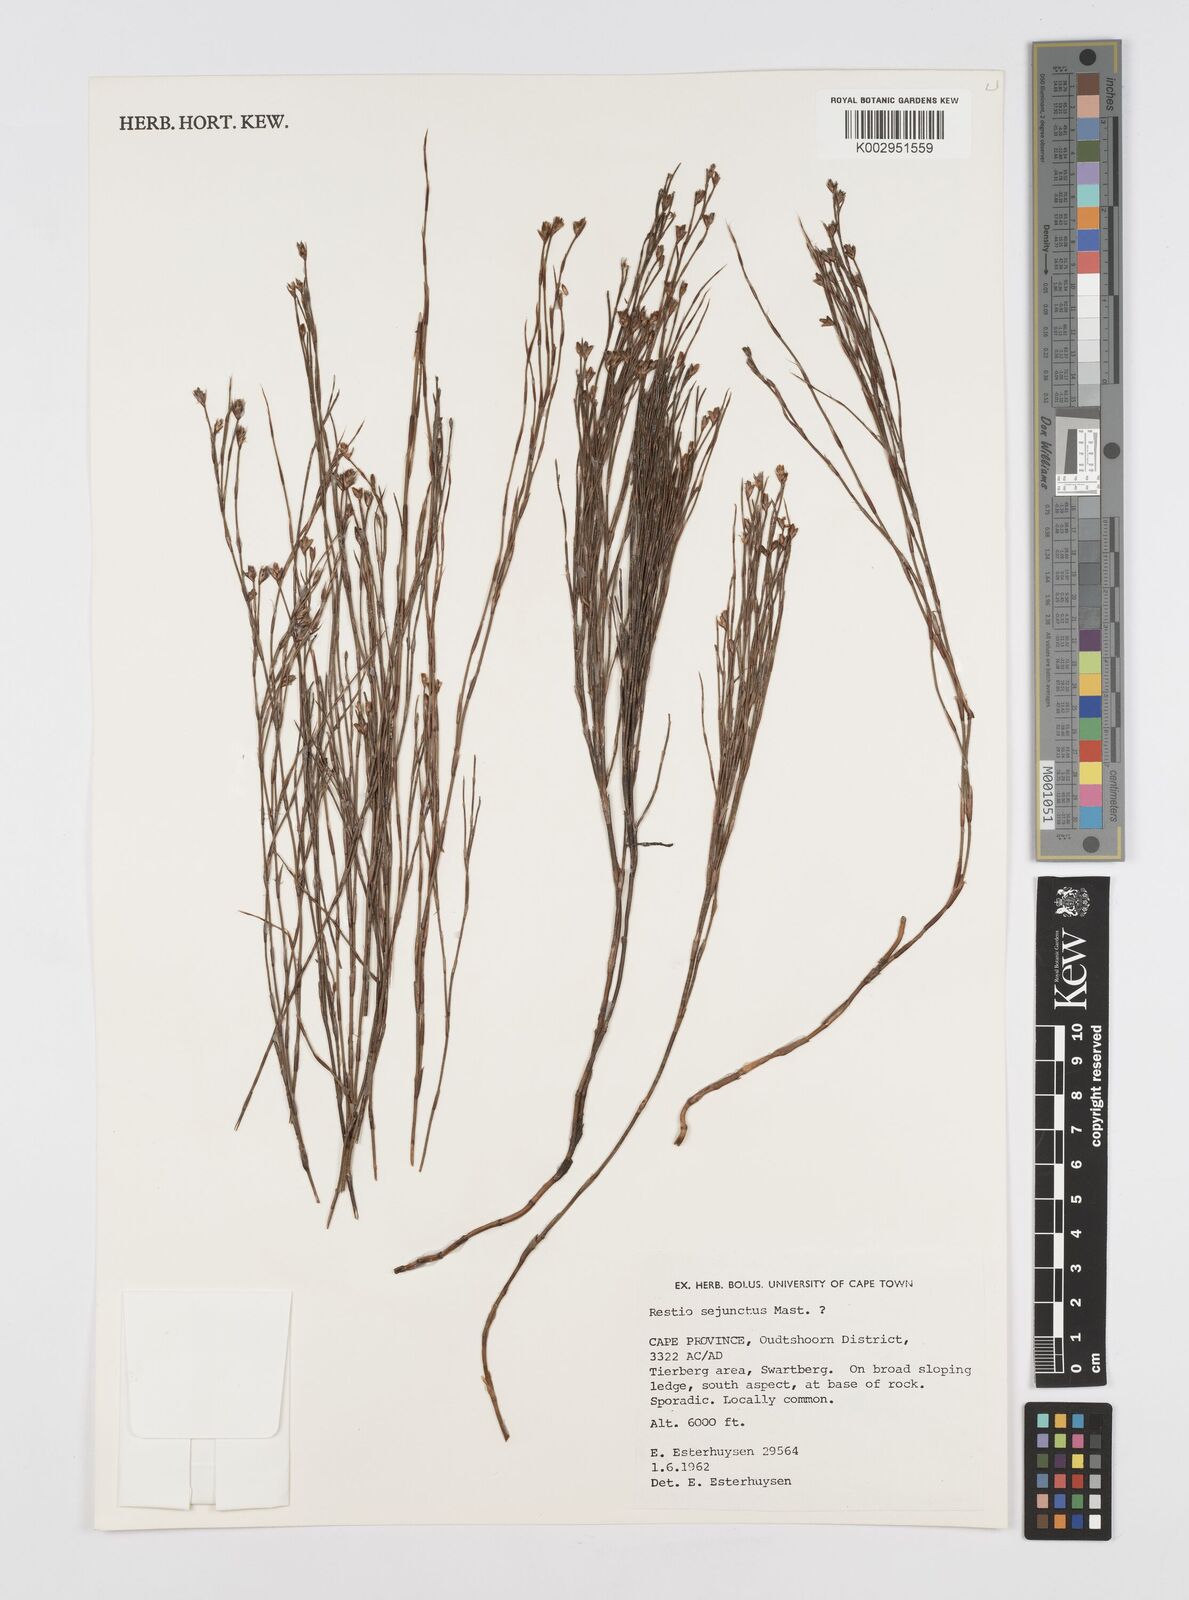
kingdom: Plantae
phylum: Tracheophyta
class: Liliopsida
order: Poales
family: Restionaceae
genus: Restio
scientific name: Restio sejunctus
